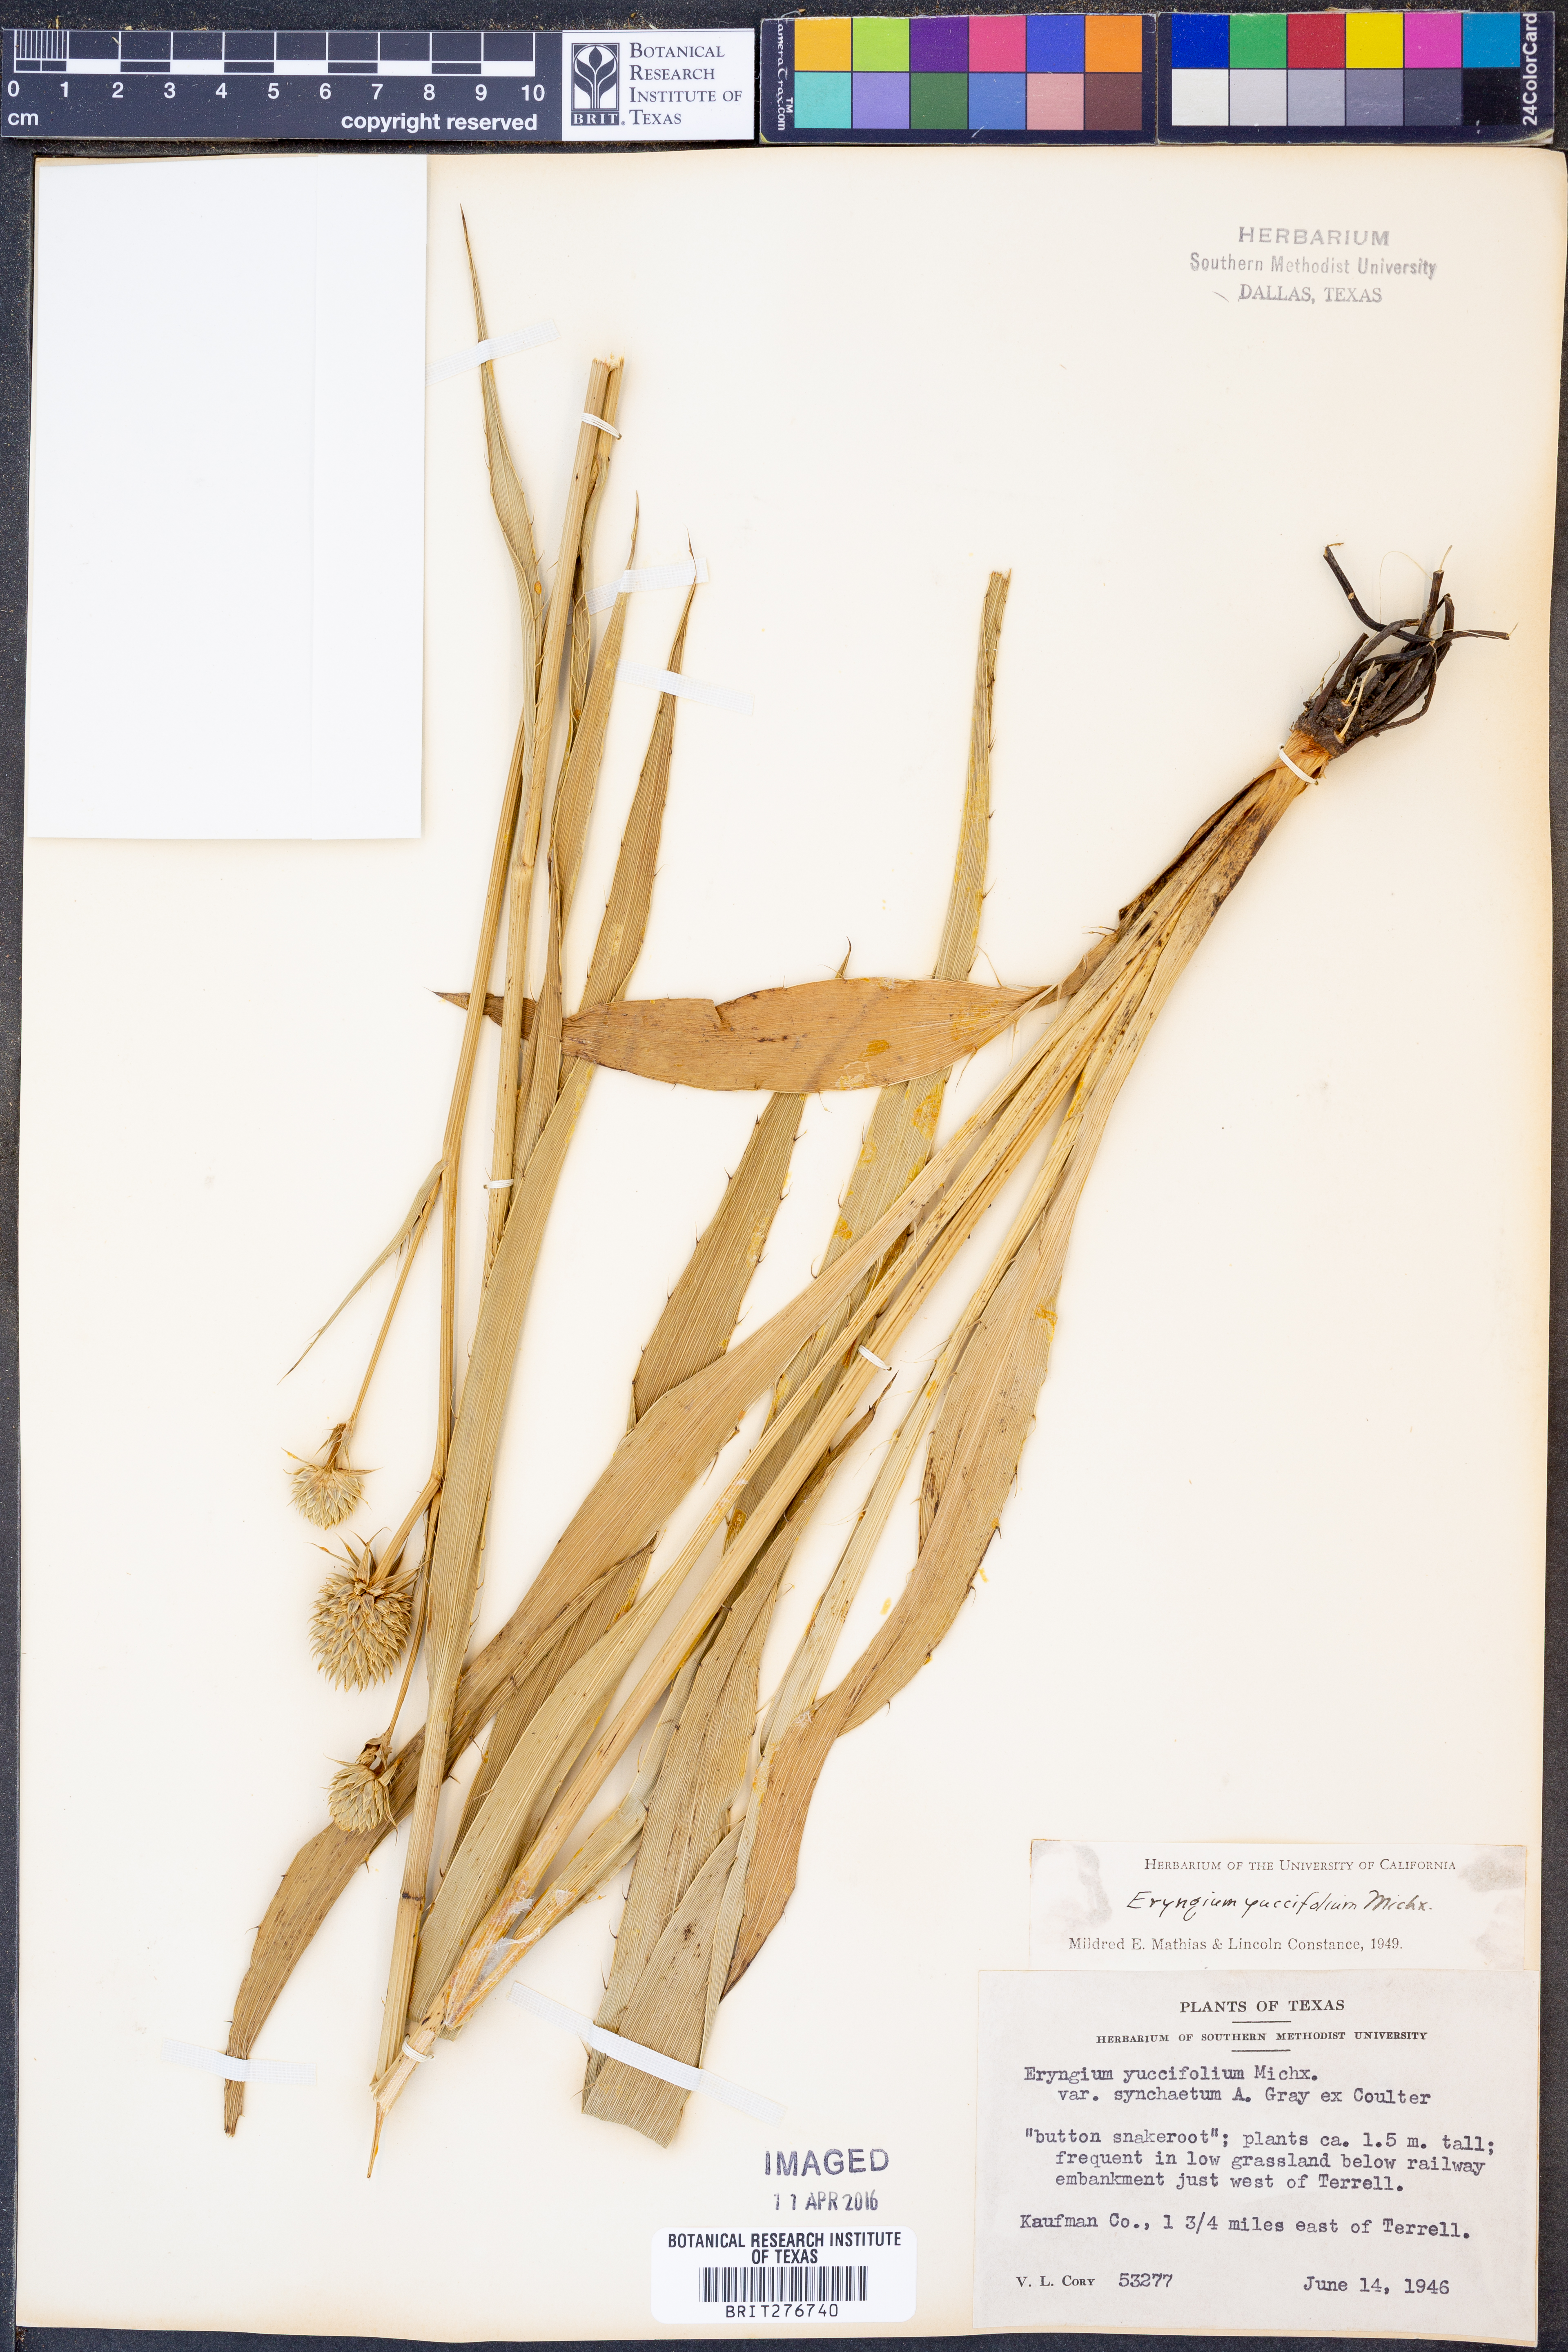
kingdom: Plantae
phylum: Tracheophyta
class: Magnoliopsida
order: Apiales
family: Apiaceae
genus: Eryngium
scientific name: Eryngium yuccifolium
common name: Button eryngo
